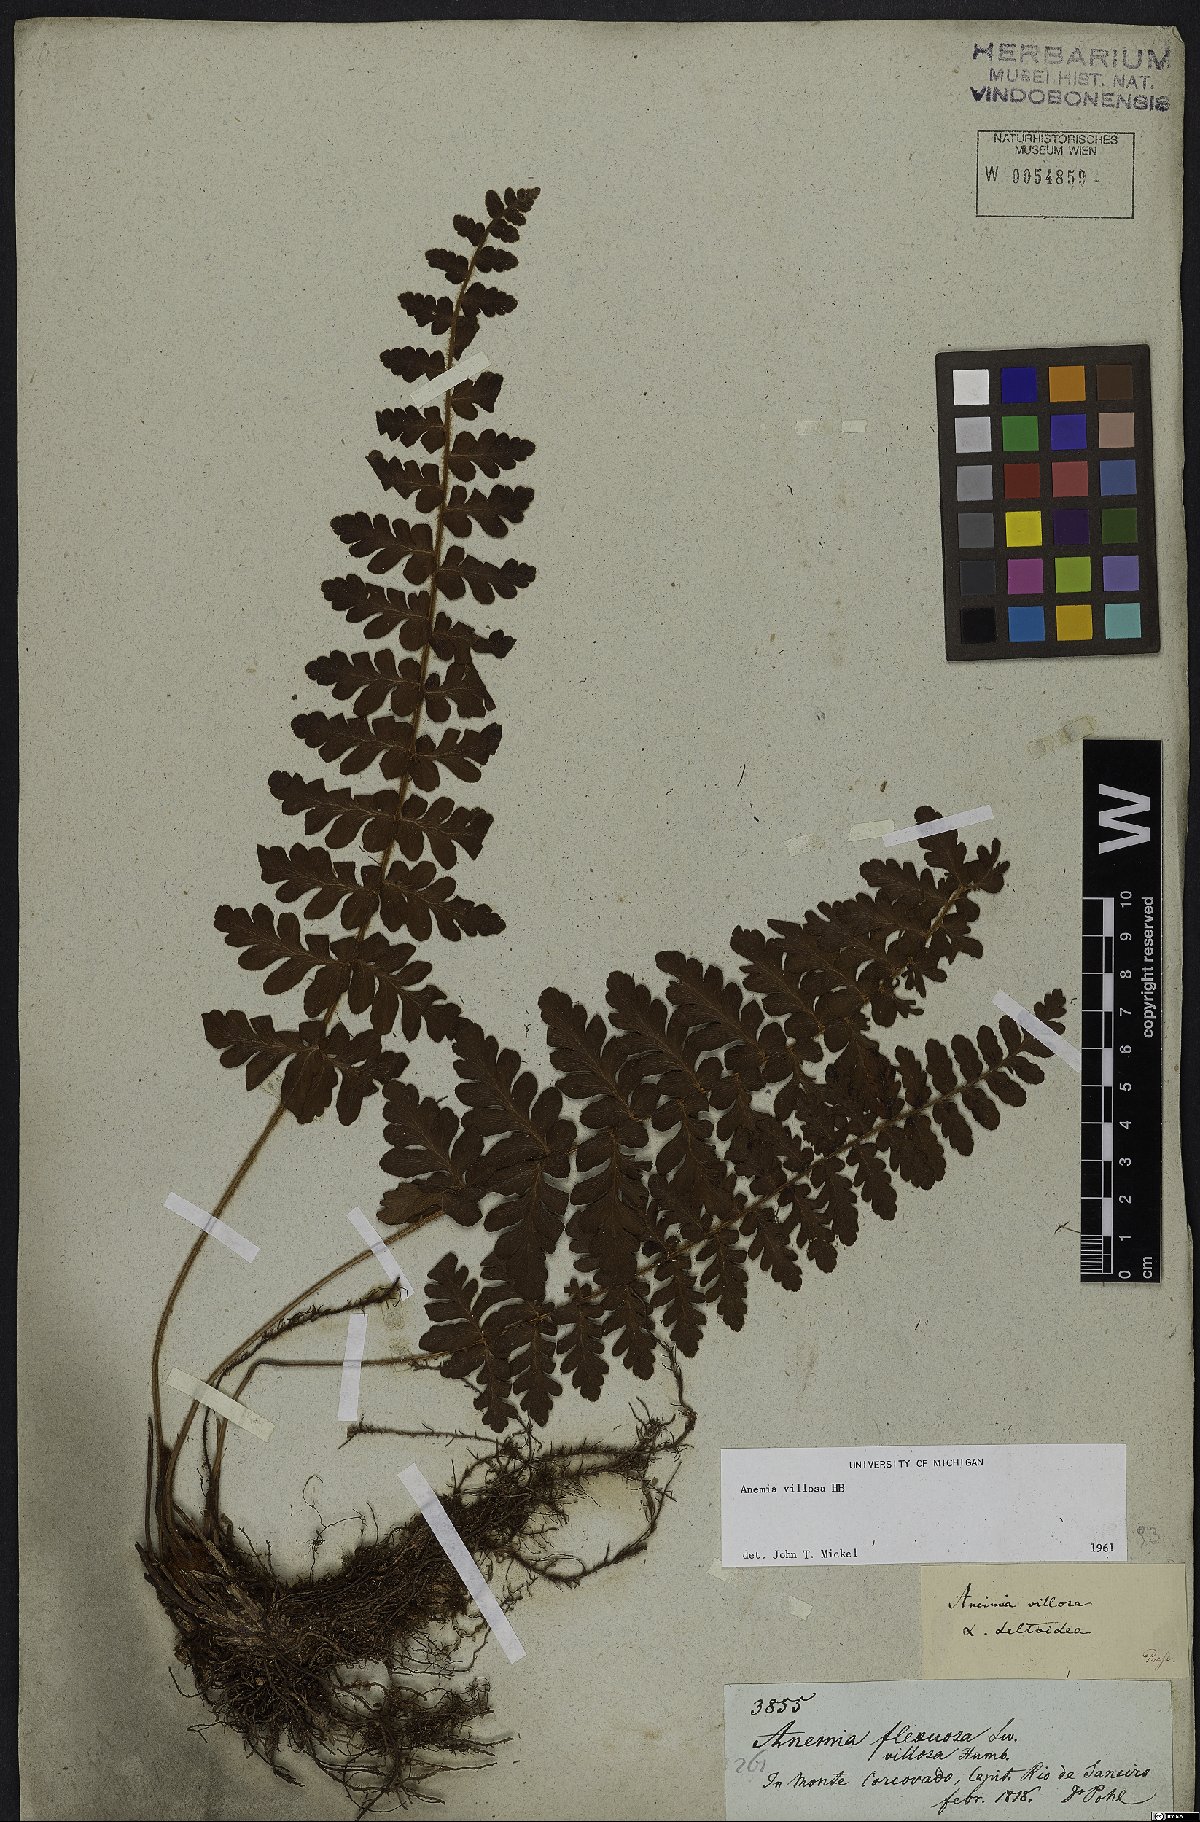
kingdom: Plantae
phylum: Tracheophyta
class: Polypodiopsida
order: Schizaeales
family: Anemiaceae
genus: Anemia
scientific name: Anemia villosa
